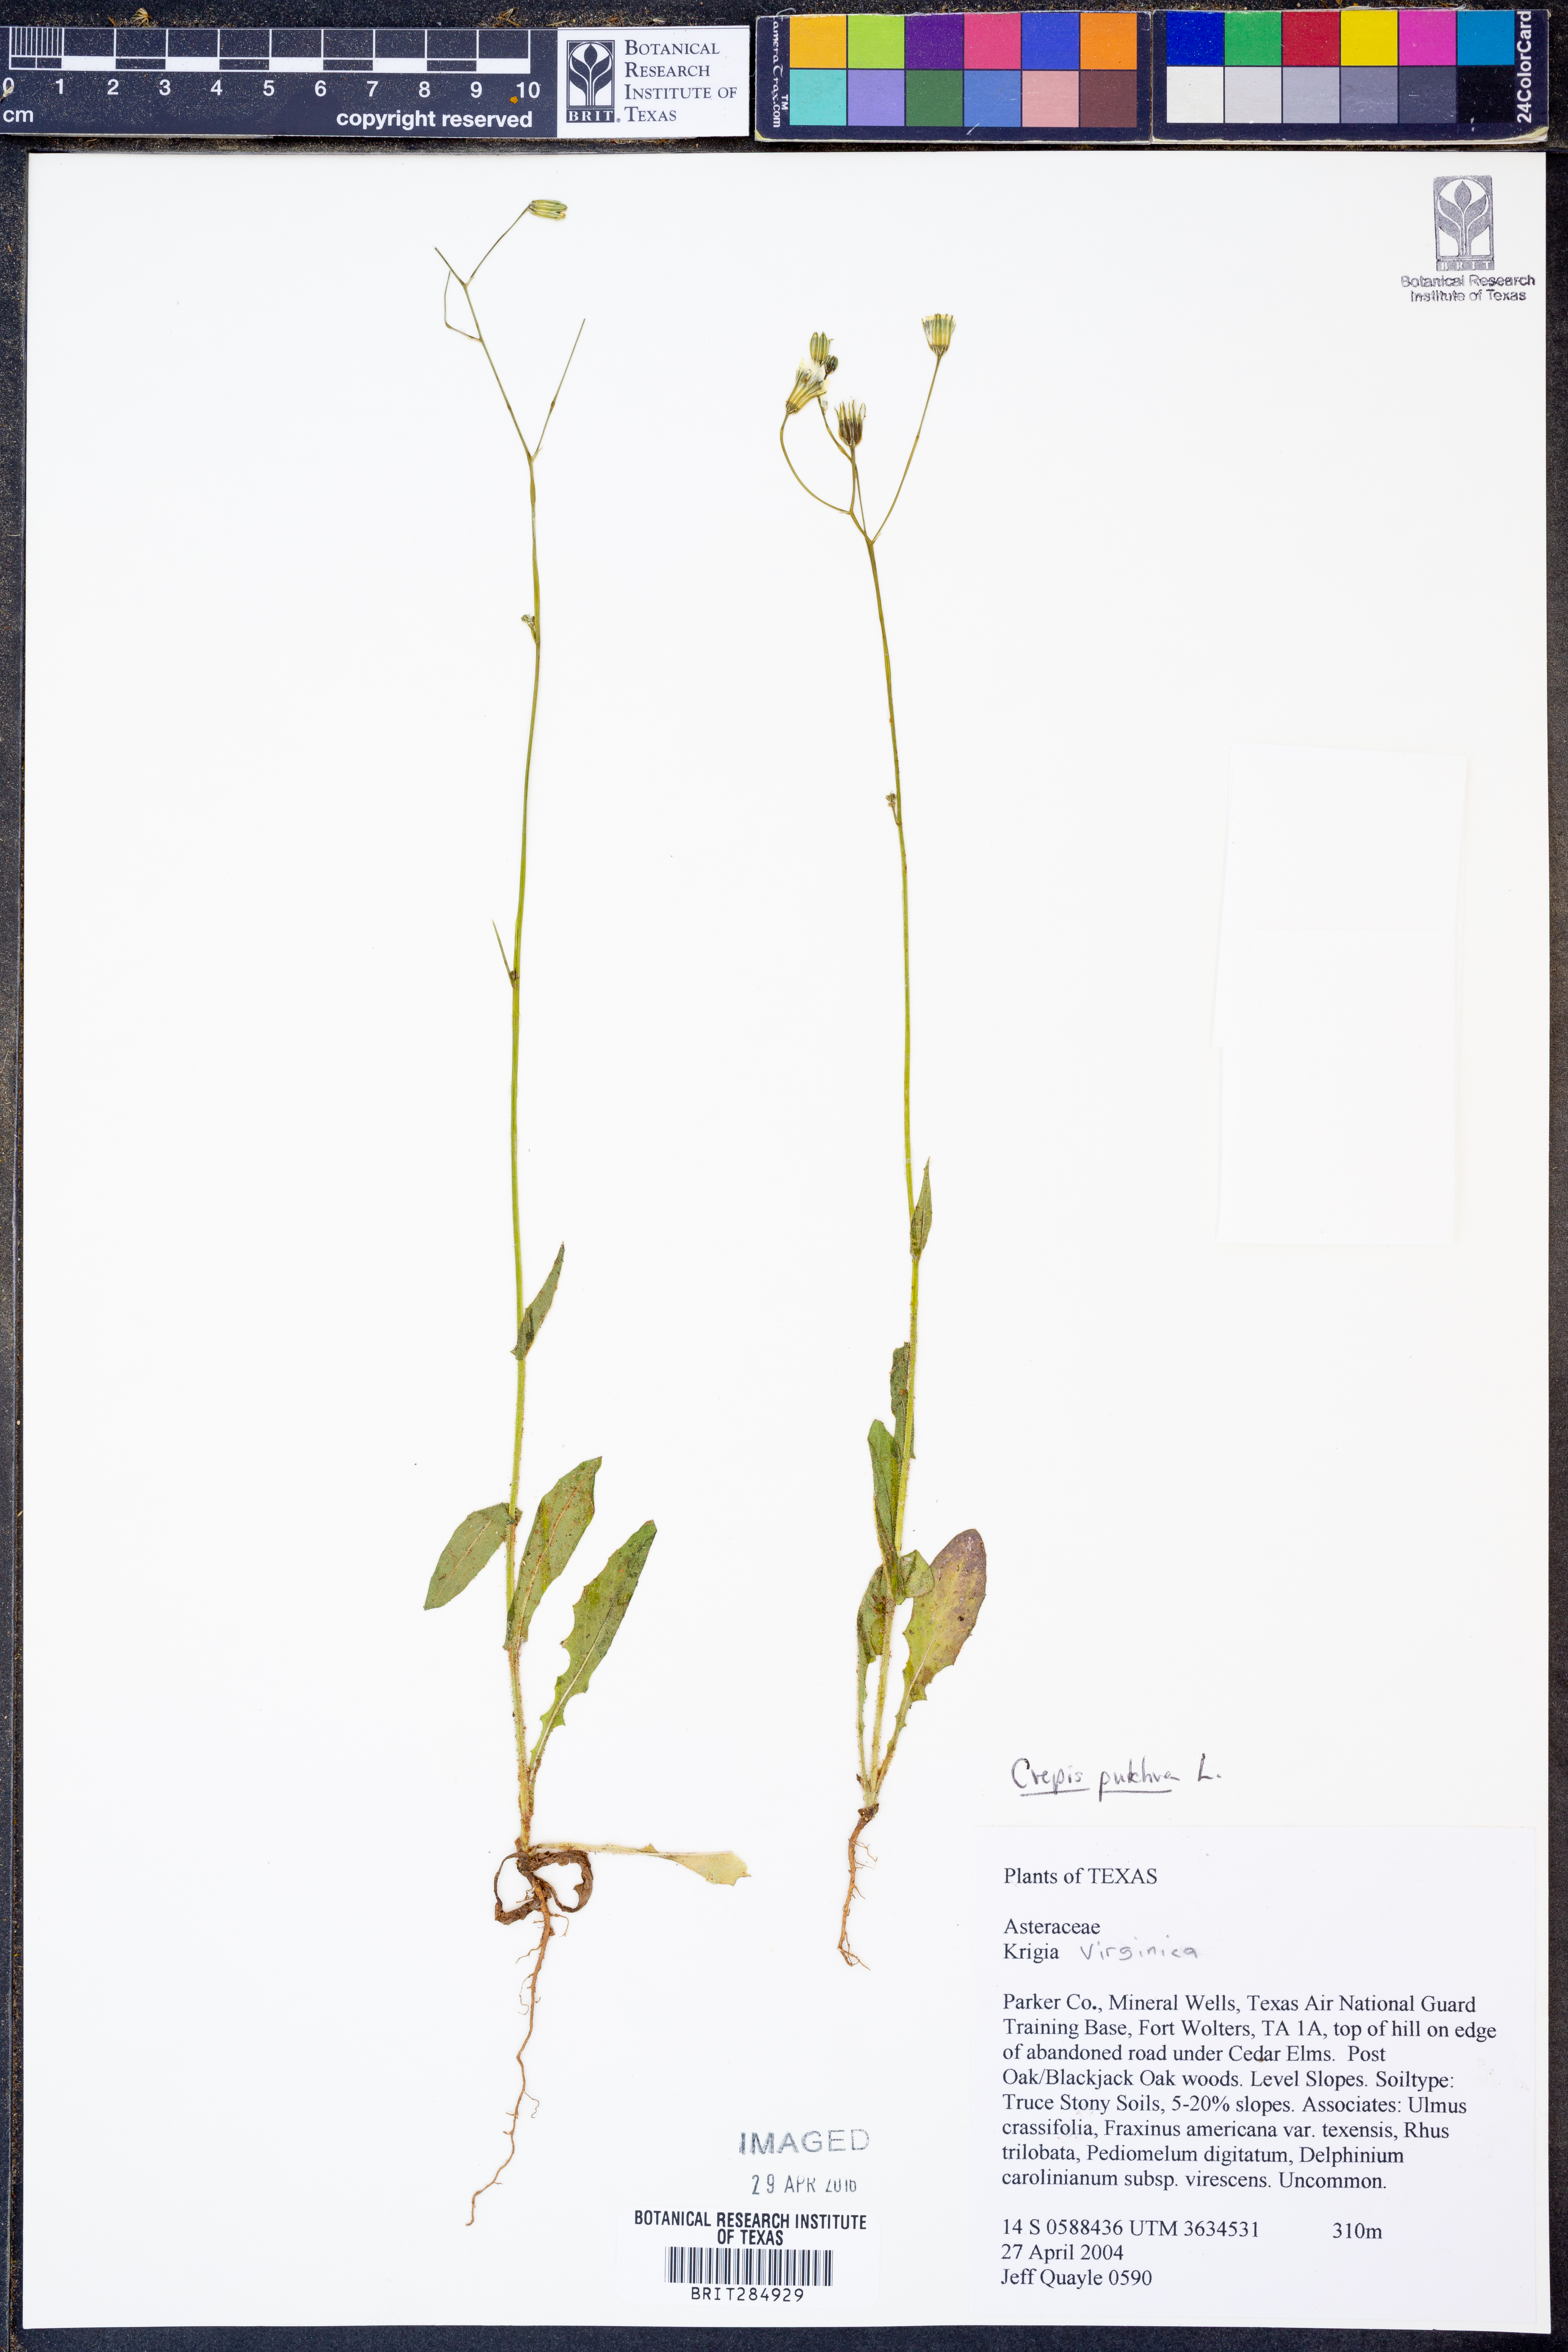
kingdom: Plantae
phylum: Tracheophyta
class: Magnoliopsida
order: Asterales
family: Asteraceae
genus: Crepis
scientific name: Crepis pulchra
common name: Hawk's-beard
